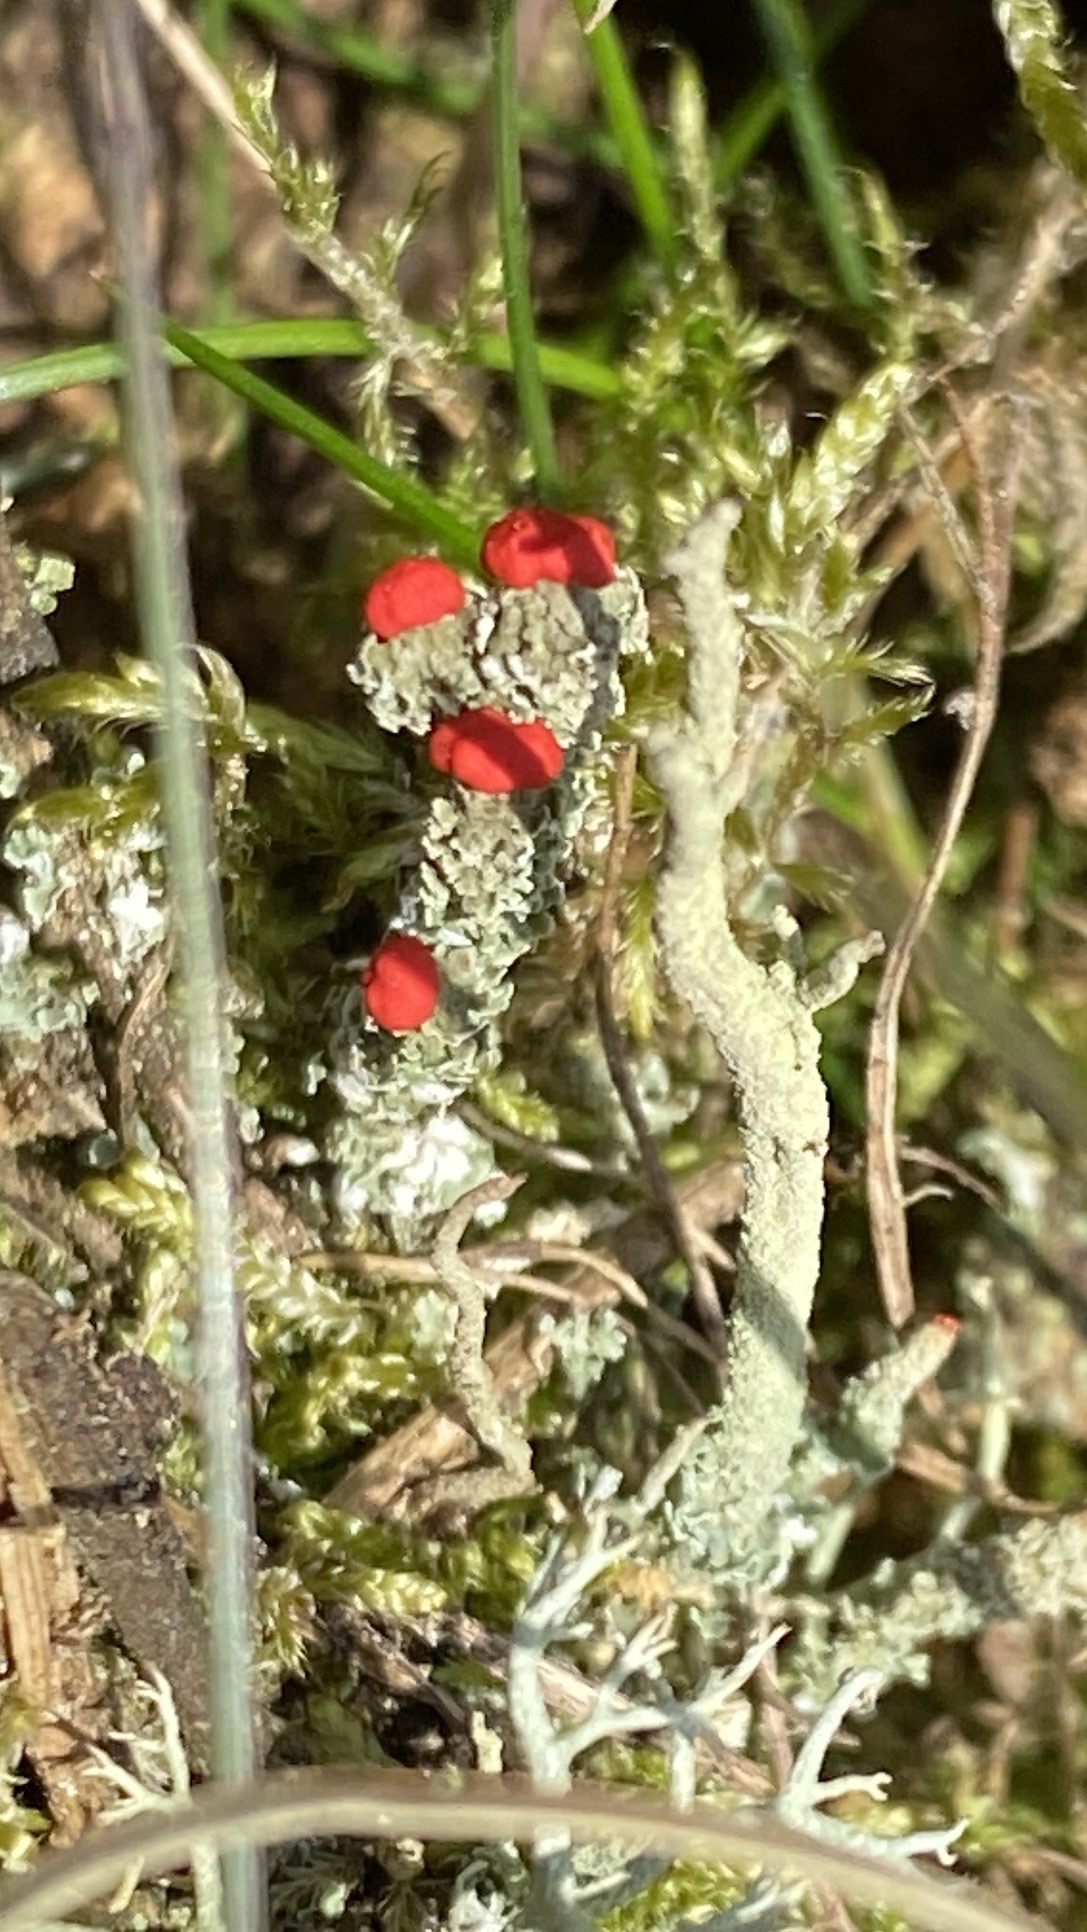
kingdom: Fungi
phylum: Ascomycota
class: Lecanoromycetes
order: Lecanorales
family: Cladoniaceae
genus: Cladonia
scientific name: Cladonia floerkeana
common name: lakrød bægerlav
